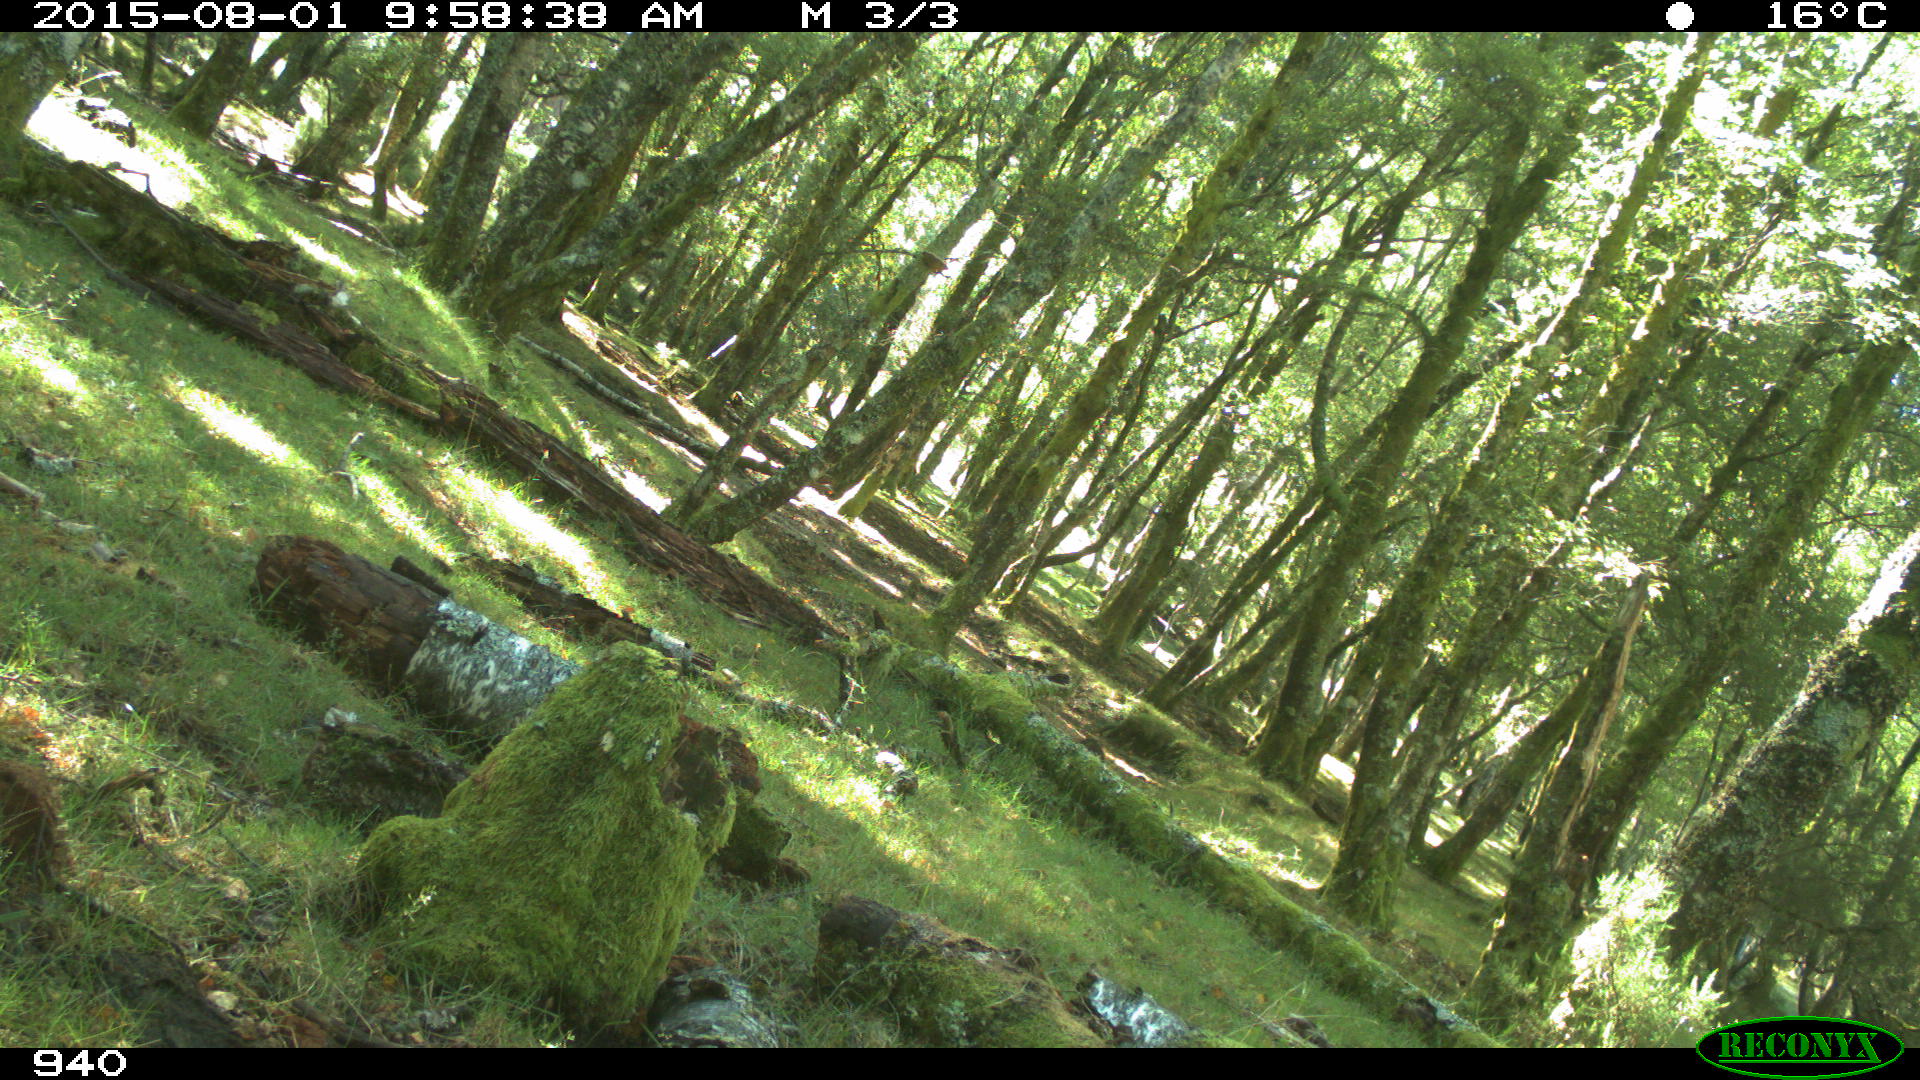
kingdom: Animalia
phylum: Chordata
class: Mammalia
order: Perissodactyla
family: Equidae
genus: Equus
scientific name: Equus caballus
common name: Horse
